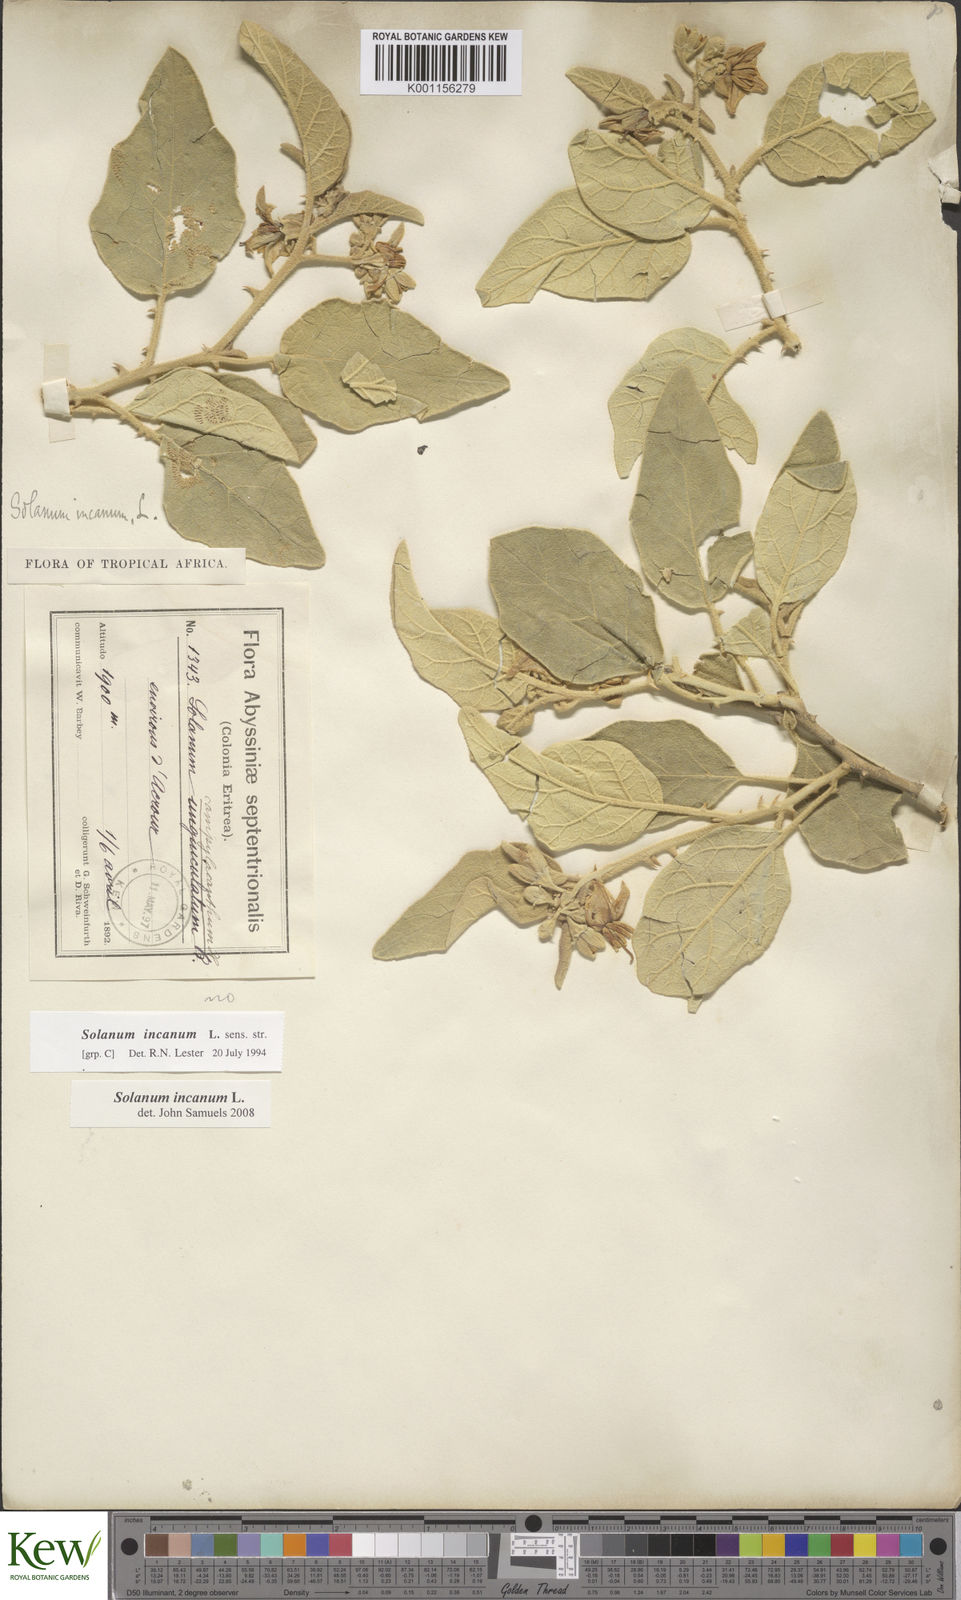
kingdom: Plantae
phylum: Tracheophyta
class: Magnoliopsida
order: Solanales
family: Solanaceae
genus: Solanum
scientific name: Solanum incanum
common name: Bitter apple
